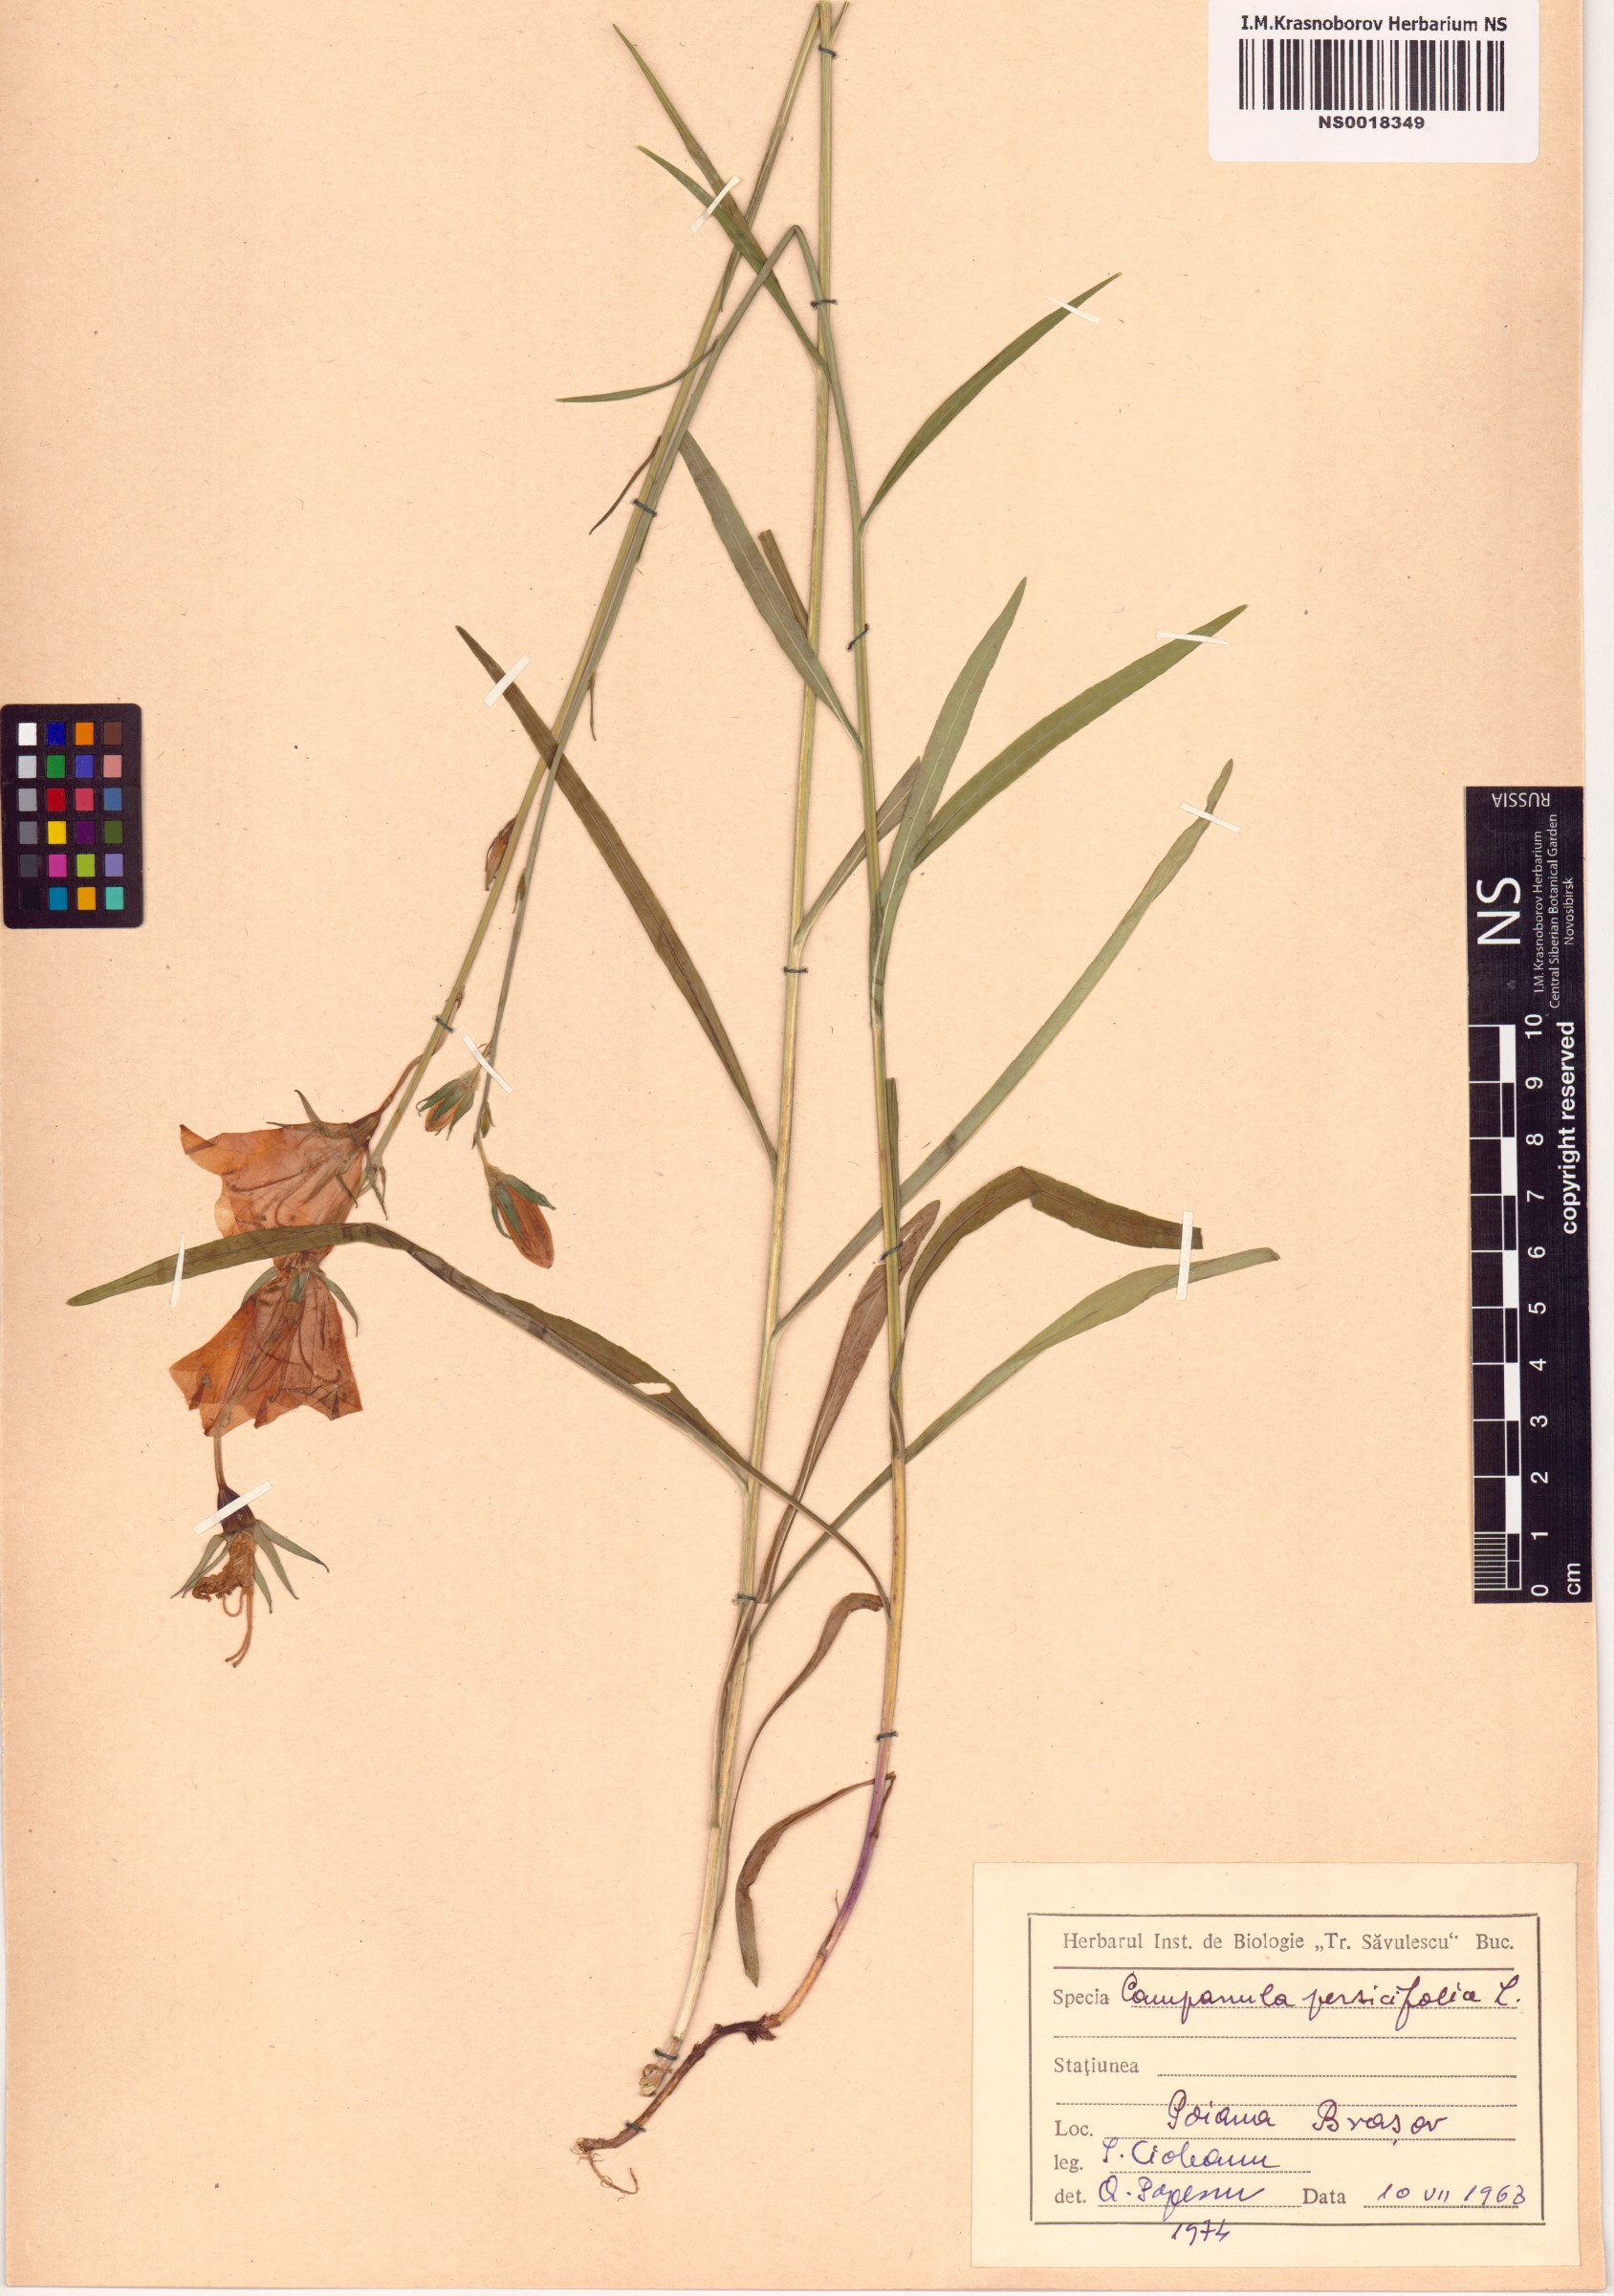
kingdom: Plantae
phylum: Tracheophyta
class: Magnoliopsida
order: Asterales
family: Campanulaceae
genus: Campanula
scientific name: Campanula persicifolia
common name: Peach-leaved bellflower
